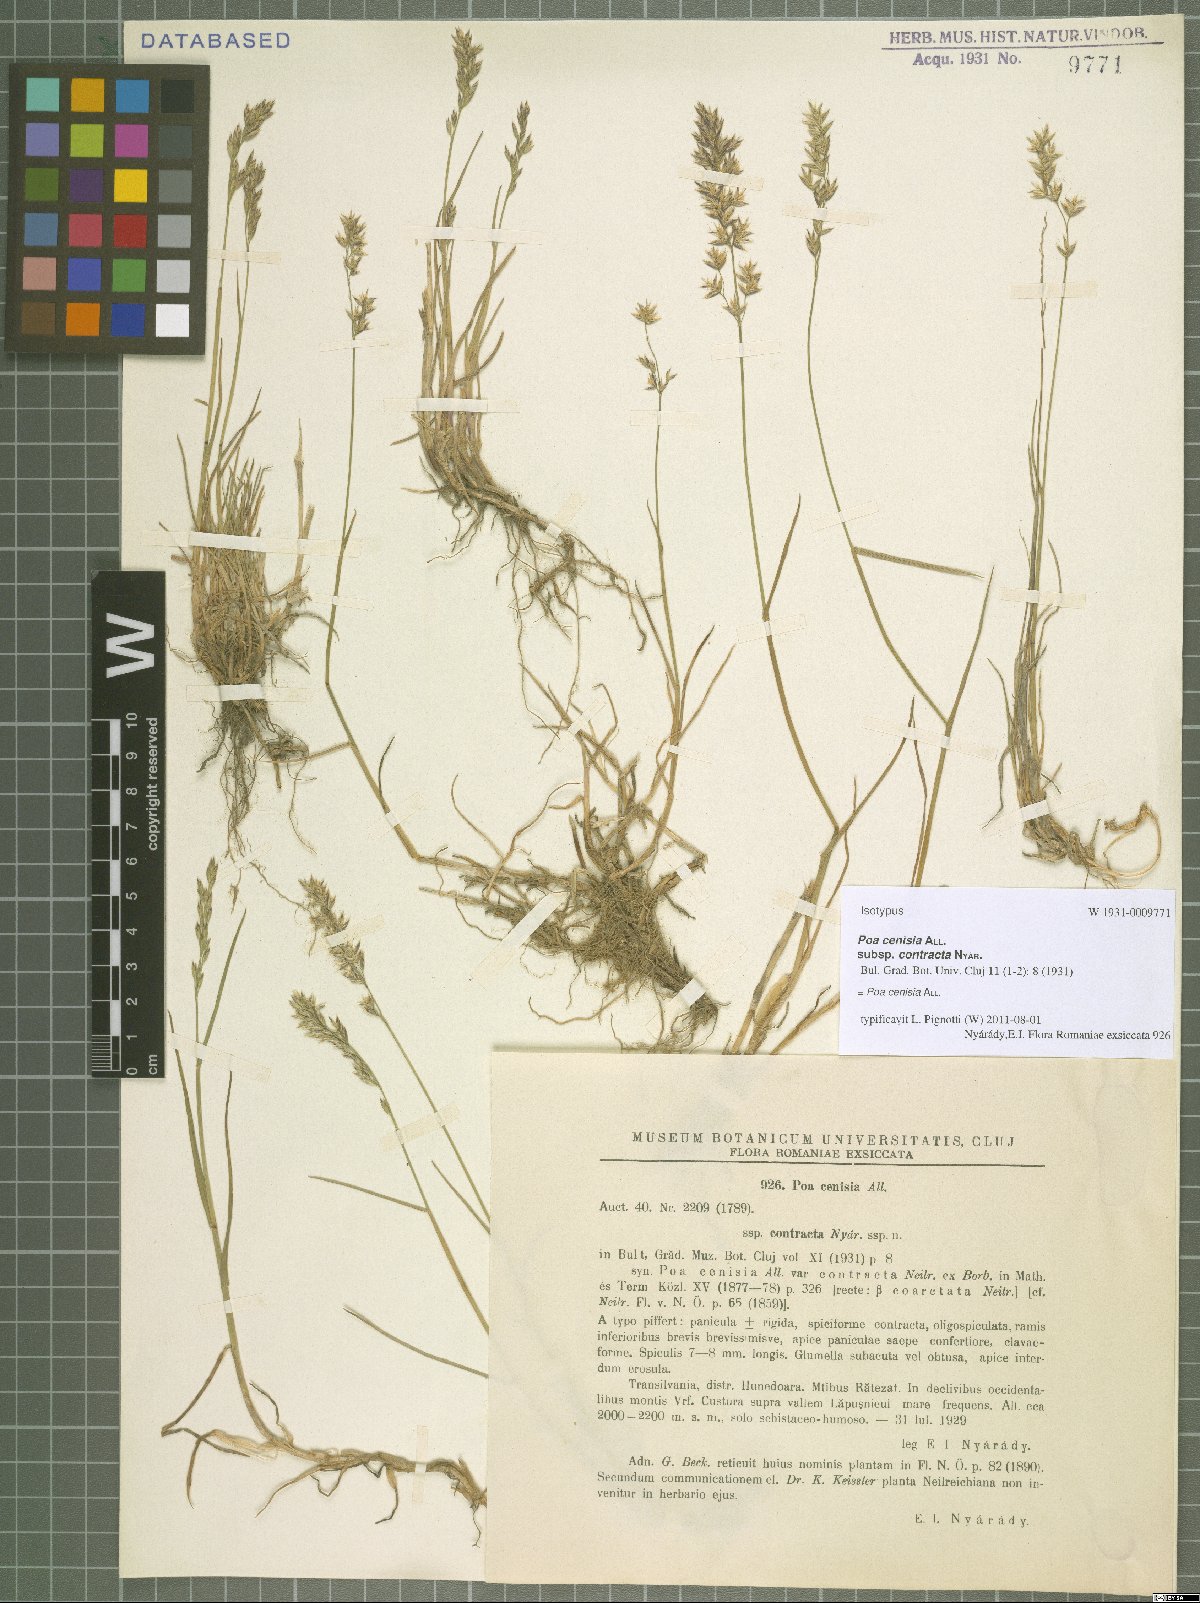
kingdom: Plantae
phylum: Tracheophyta
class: Liliopsida
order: Poales
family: Poaceae
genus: Poa
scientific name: Poa cenisia
